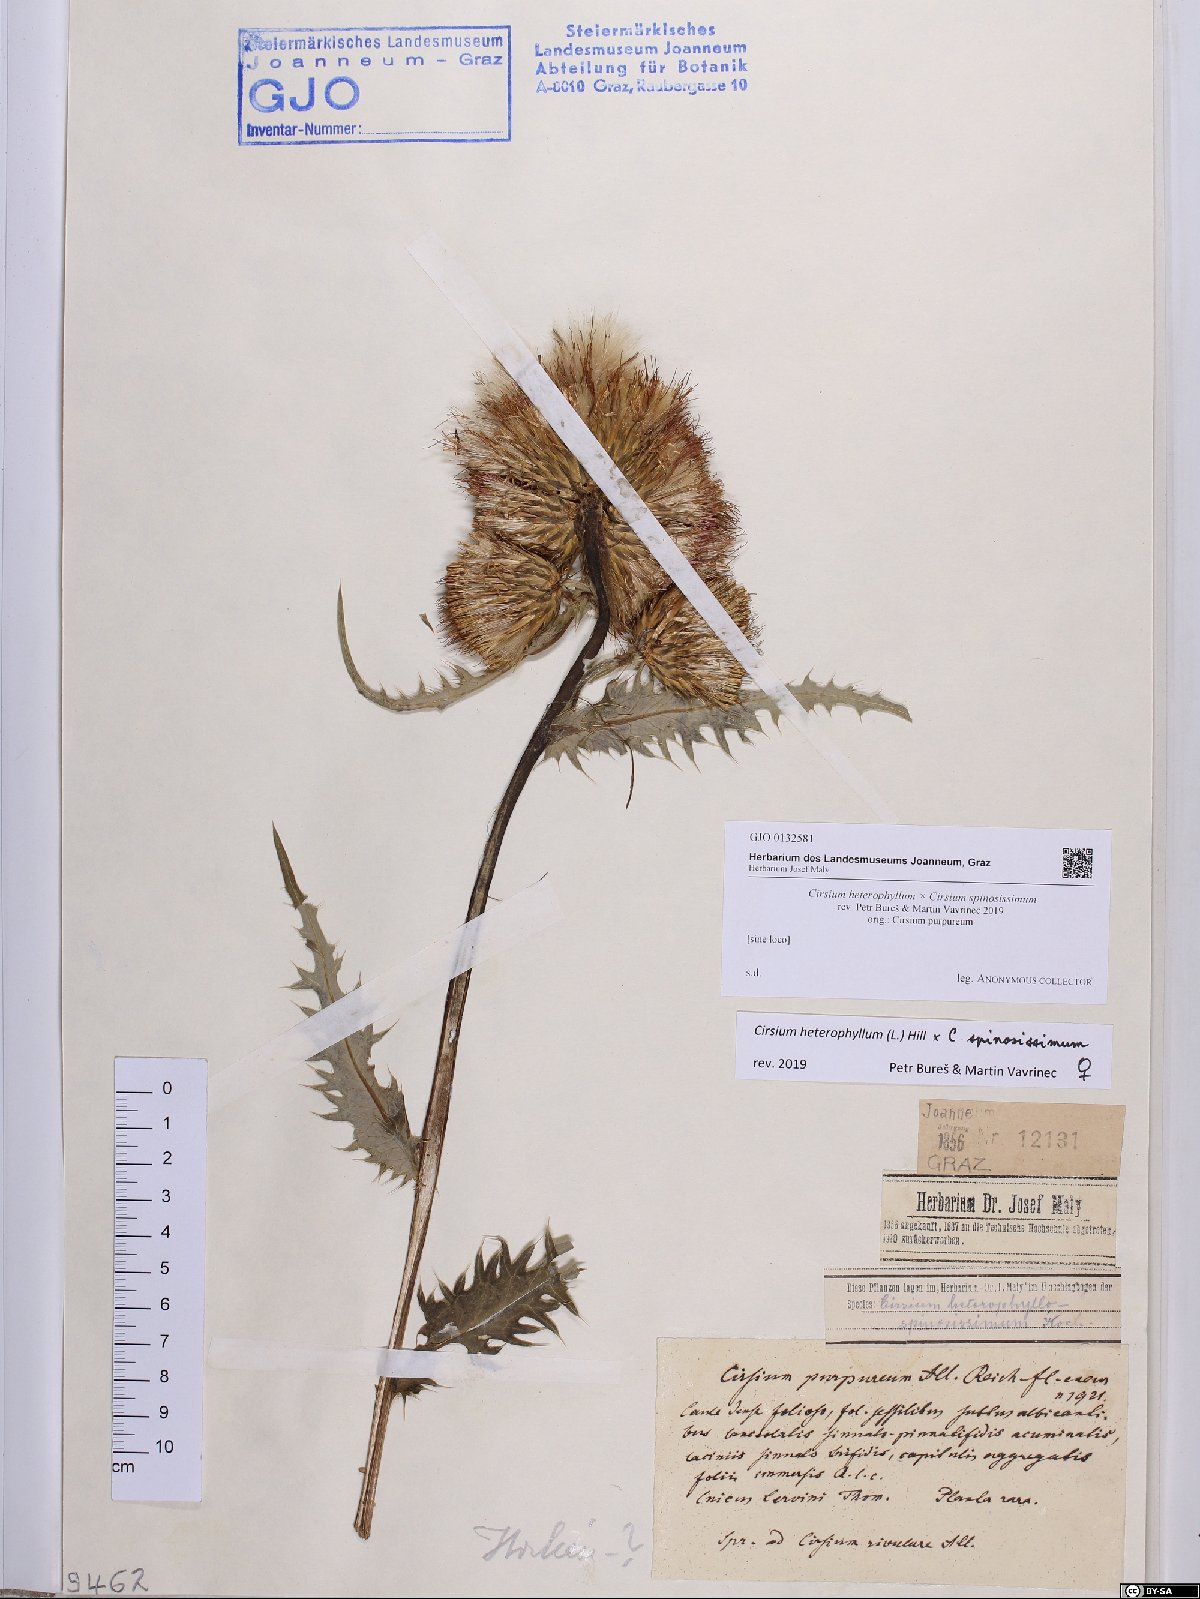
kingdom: Plantae
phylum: Tracheophyta
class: Magnoliopsida
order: Asterales
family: Asteraceae
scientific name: Asteraceae
